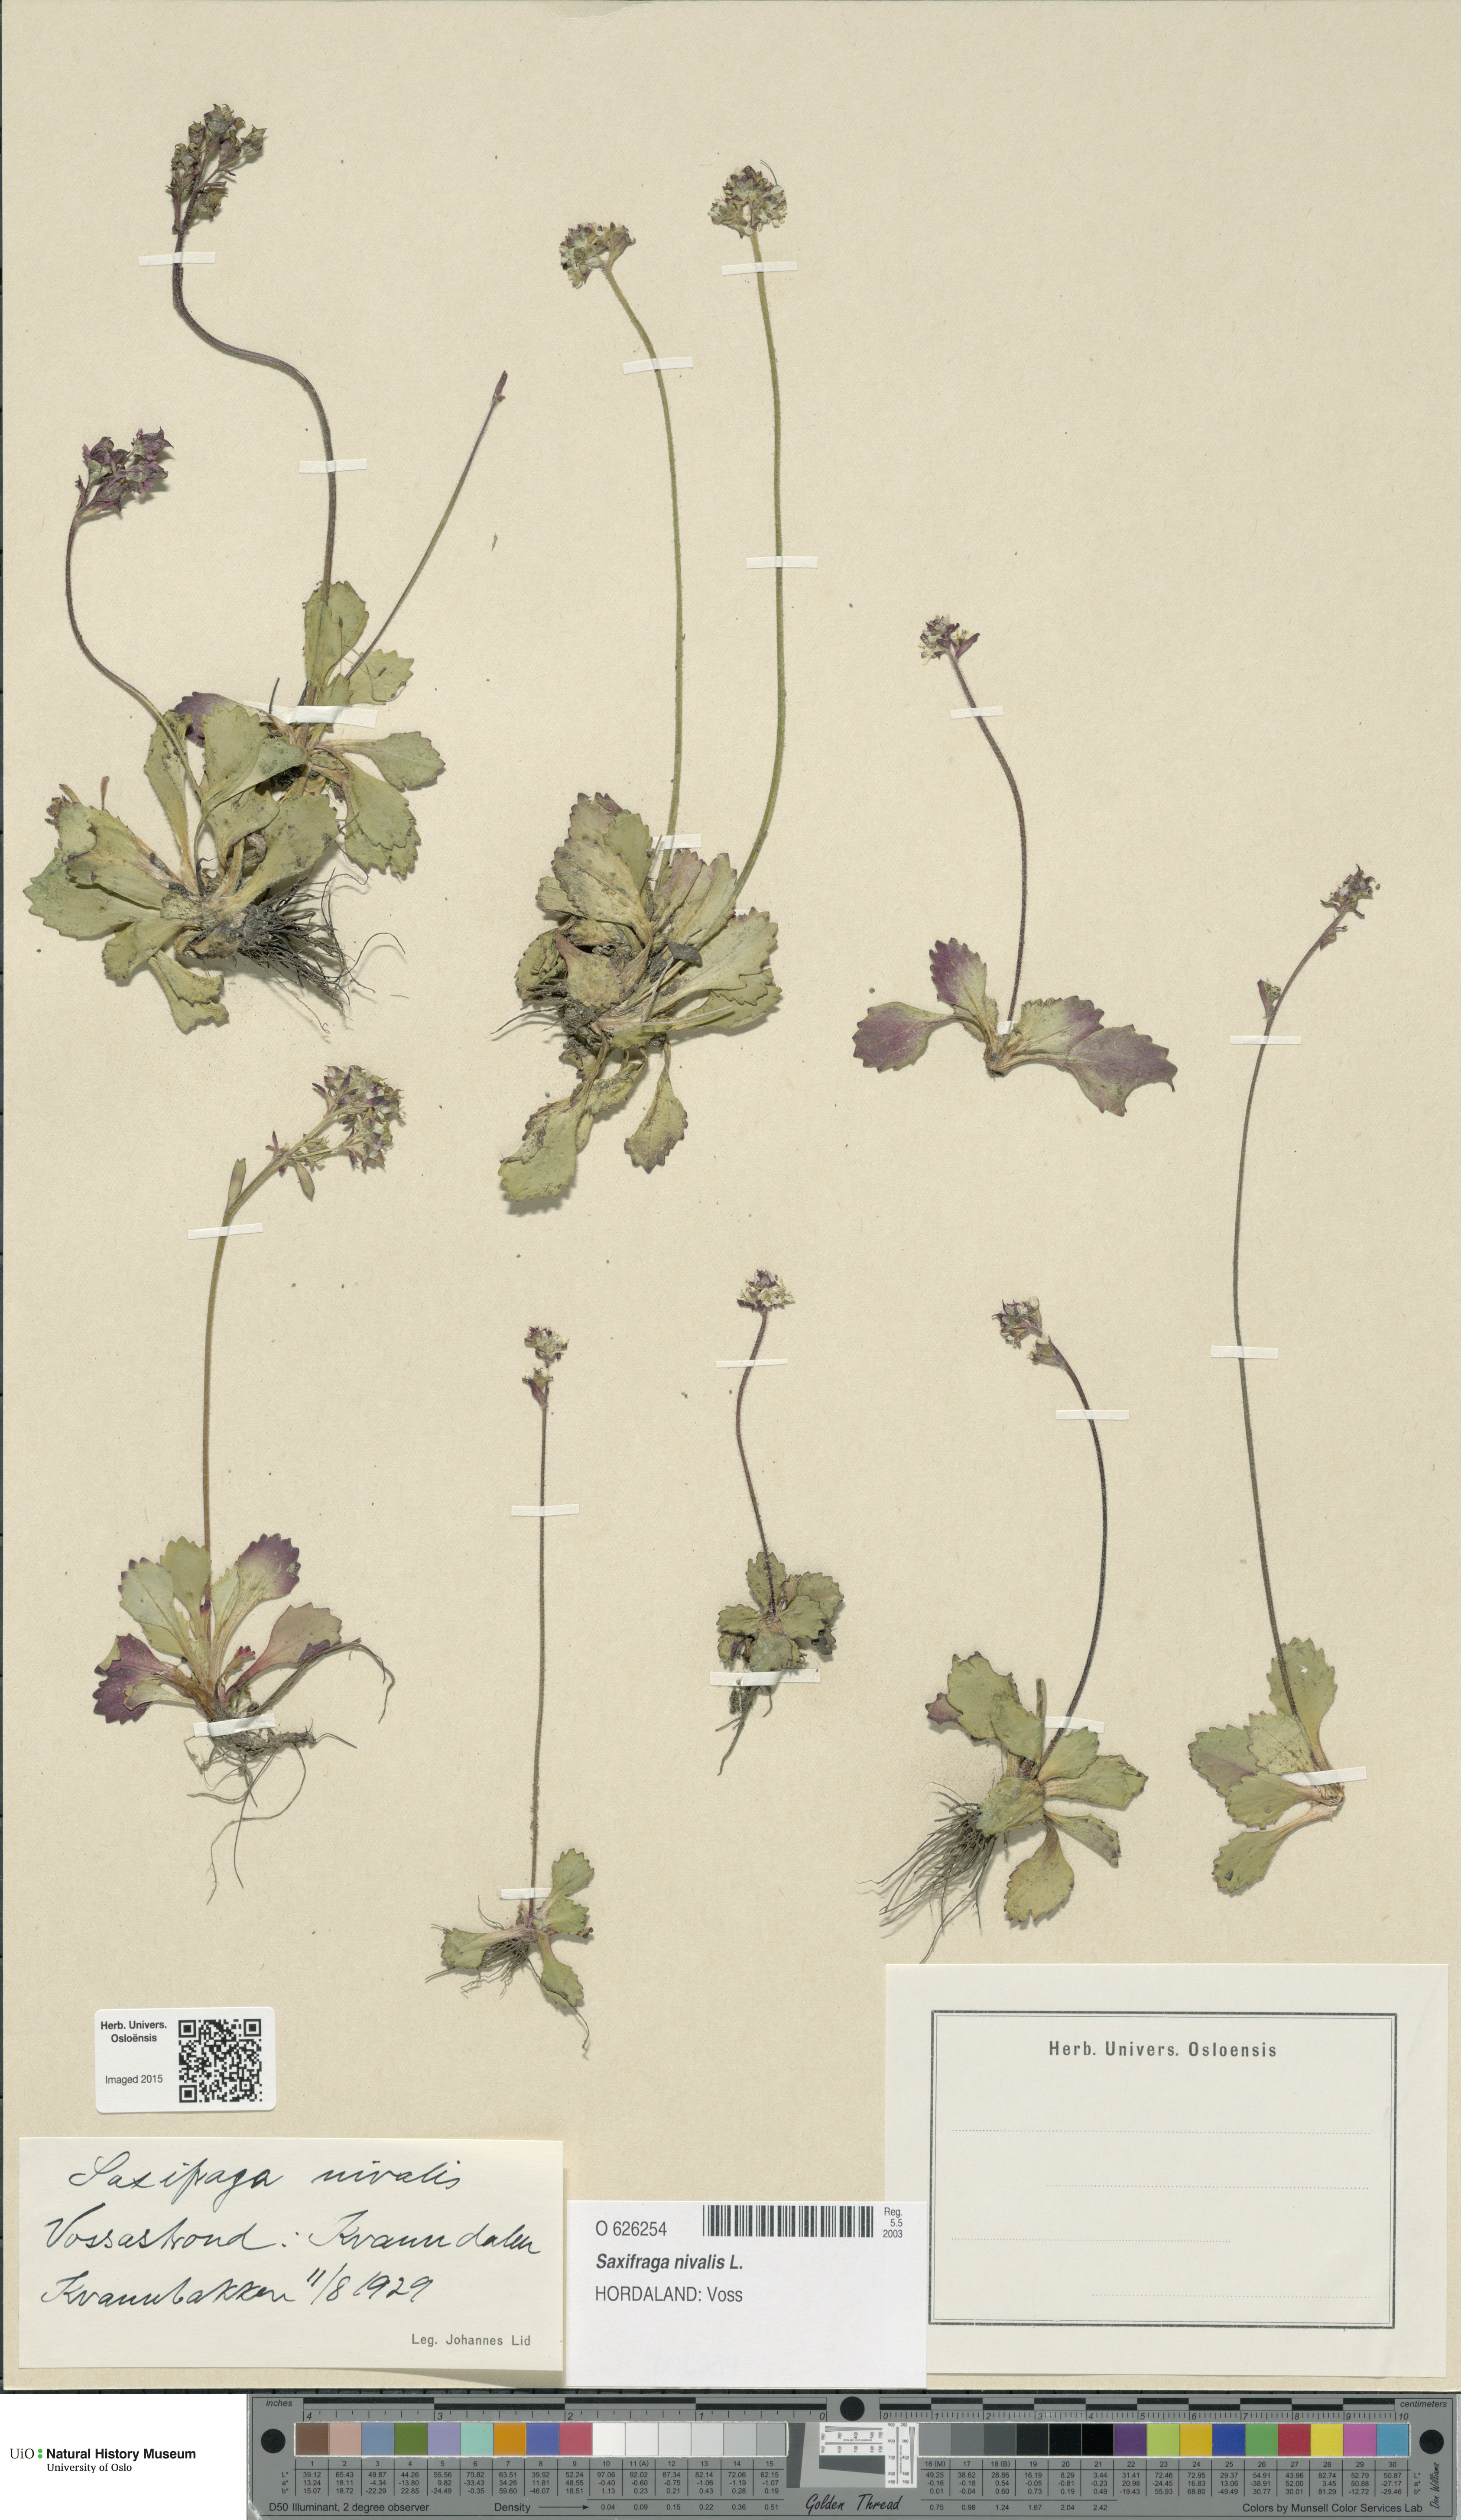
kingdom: Plantae
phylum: Tracheophyta
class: Magnoliopsida
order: Saxifragales
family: Saxifragaceae
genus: Micranthes
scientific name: Micranthes nivalis
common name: Alpine saxifrage
